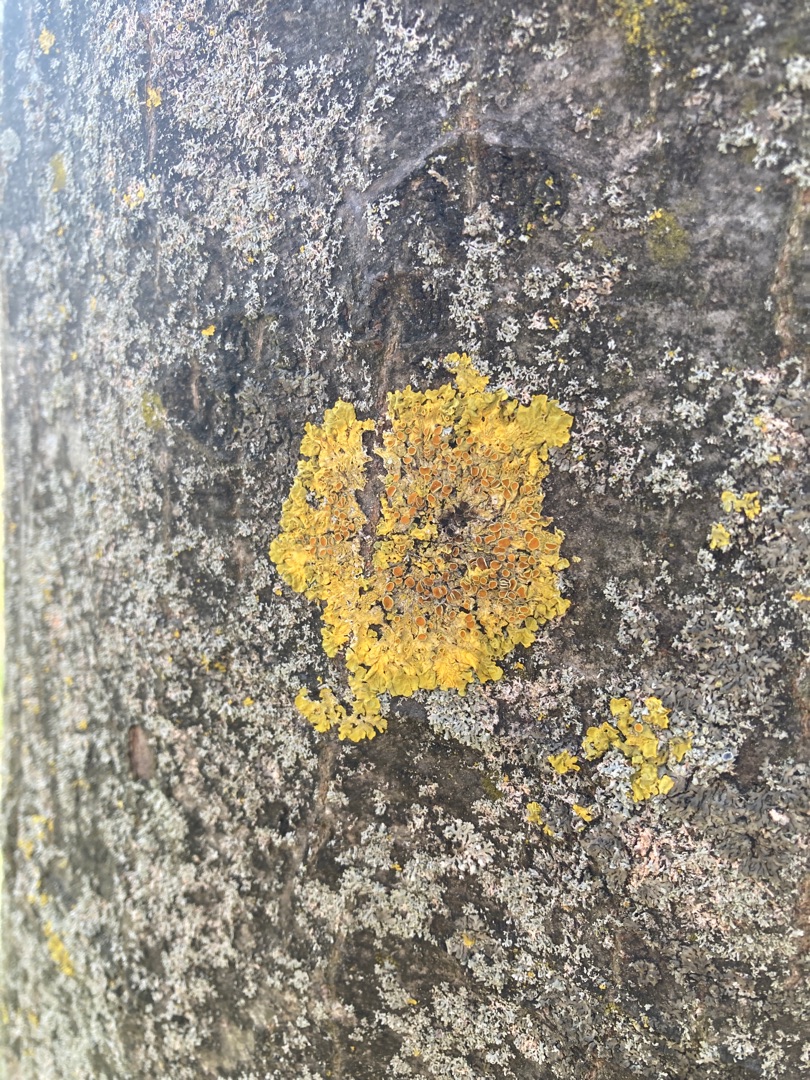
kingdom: Fungi
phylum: Ascomycota
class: Lecanoromycetes
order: Teloschistales
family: Teloschistaceae
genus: Xanthoria
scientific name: Xanthoria parietina
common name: Almindelig væggelav
